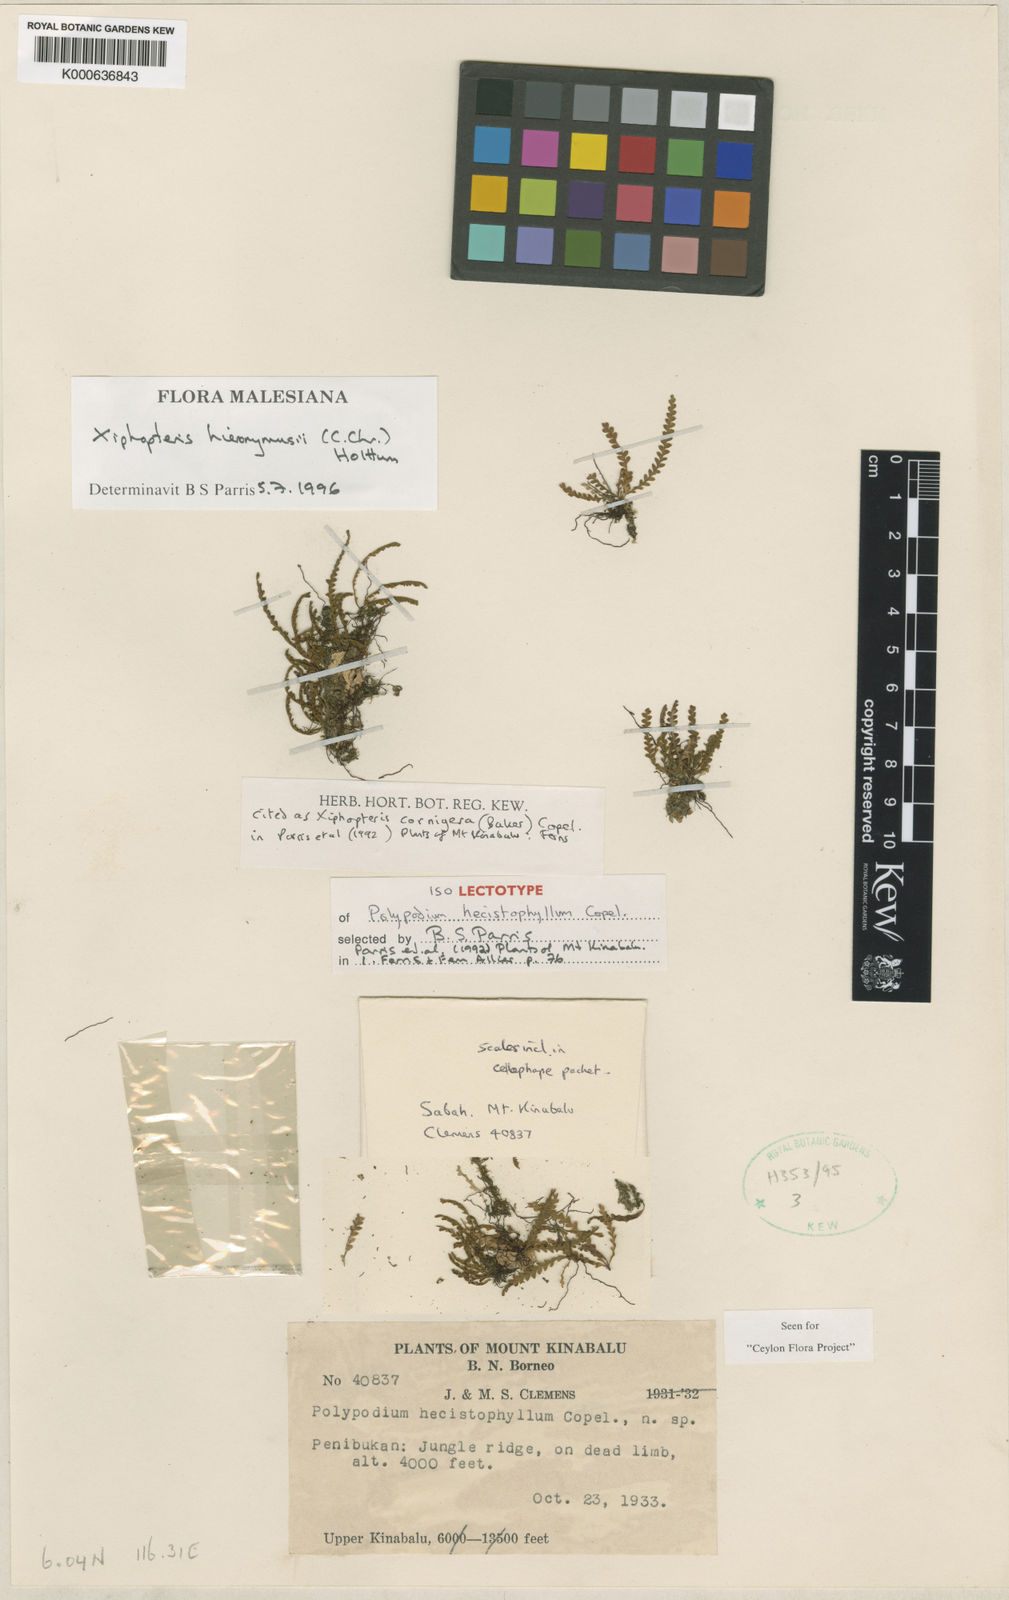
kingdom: Plantae
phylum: Tracheophyta
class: Polypodiopsida
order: Polypodiales
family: Polypodiaceae
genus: Xiphopterella
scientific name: Xiphopterella murudensis
